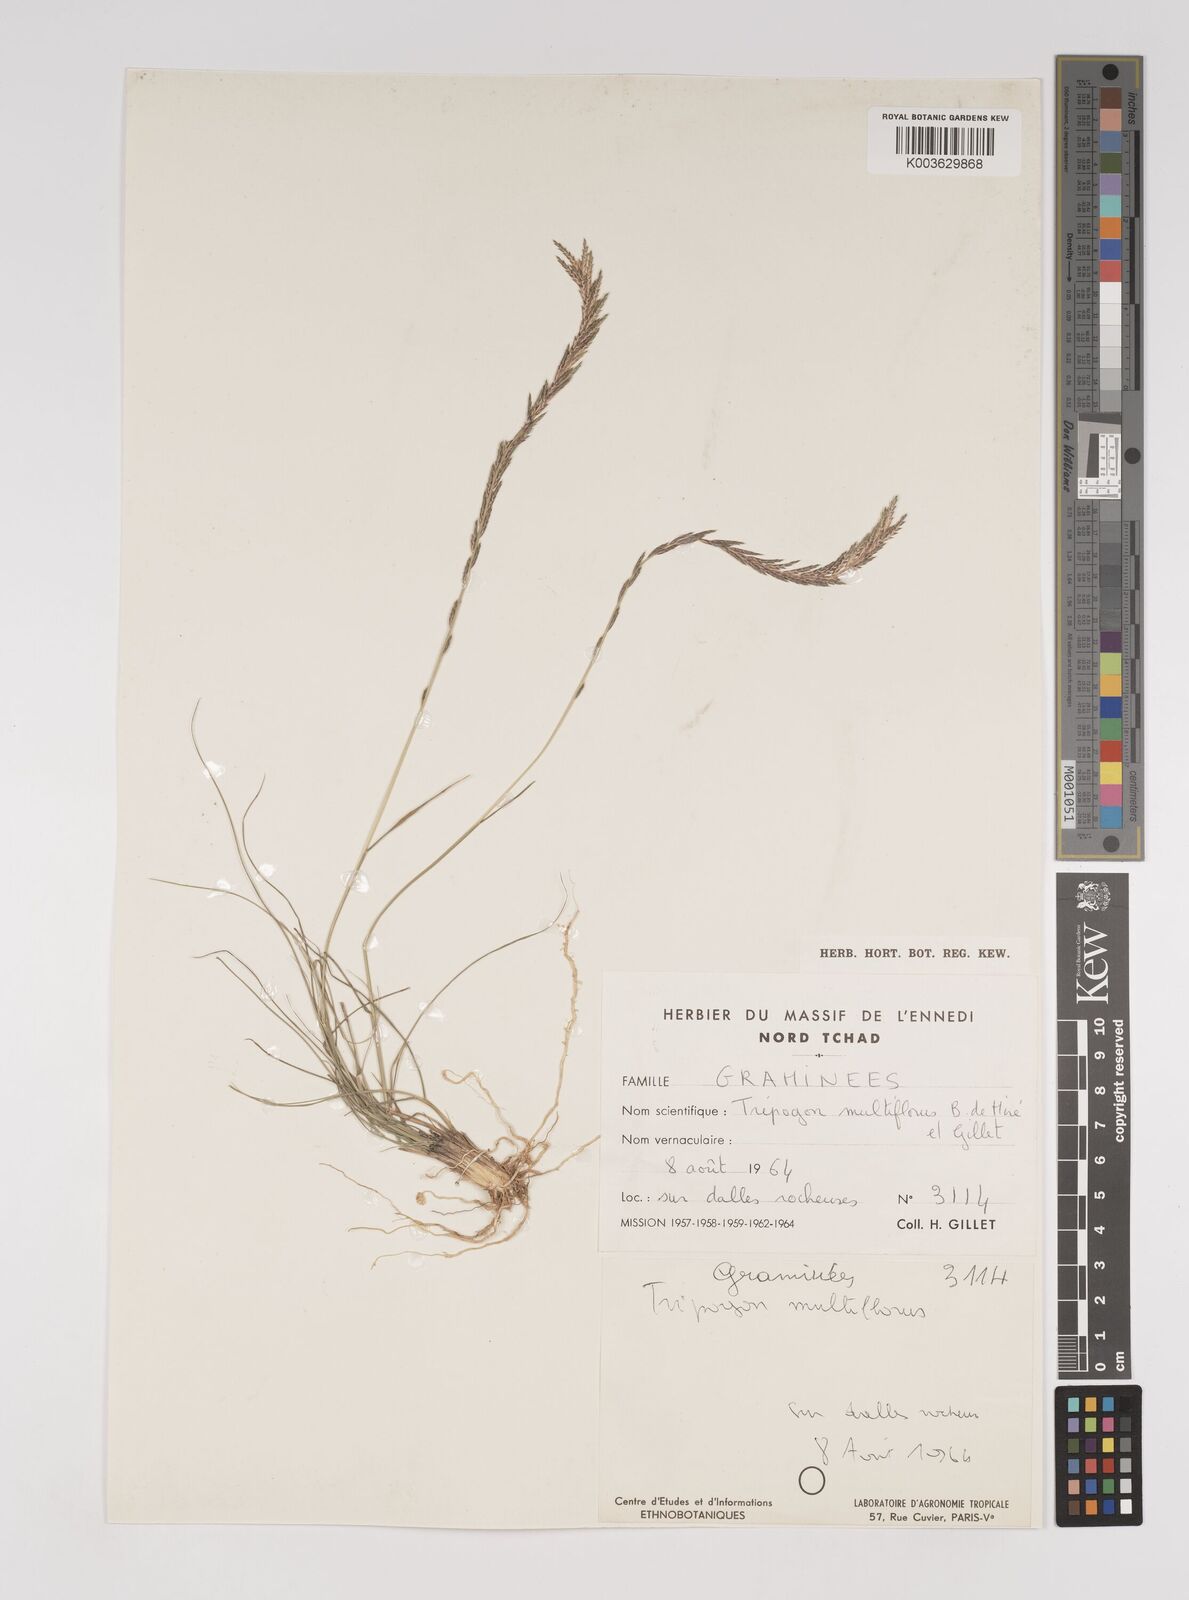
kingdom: Plantae
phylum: Tracheophyta
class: Liliopsida
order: Poales
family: Poaceae
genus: Tripogon
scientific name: Tripogon multiflorus
